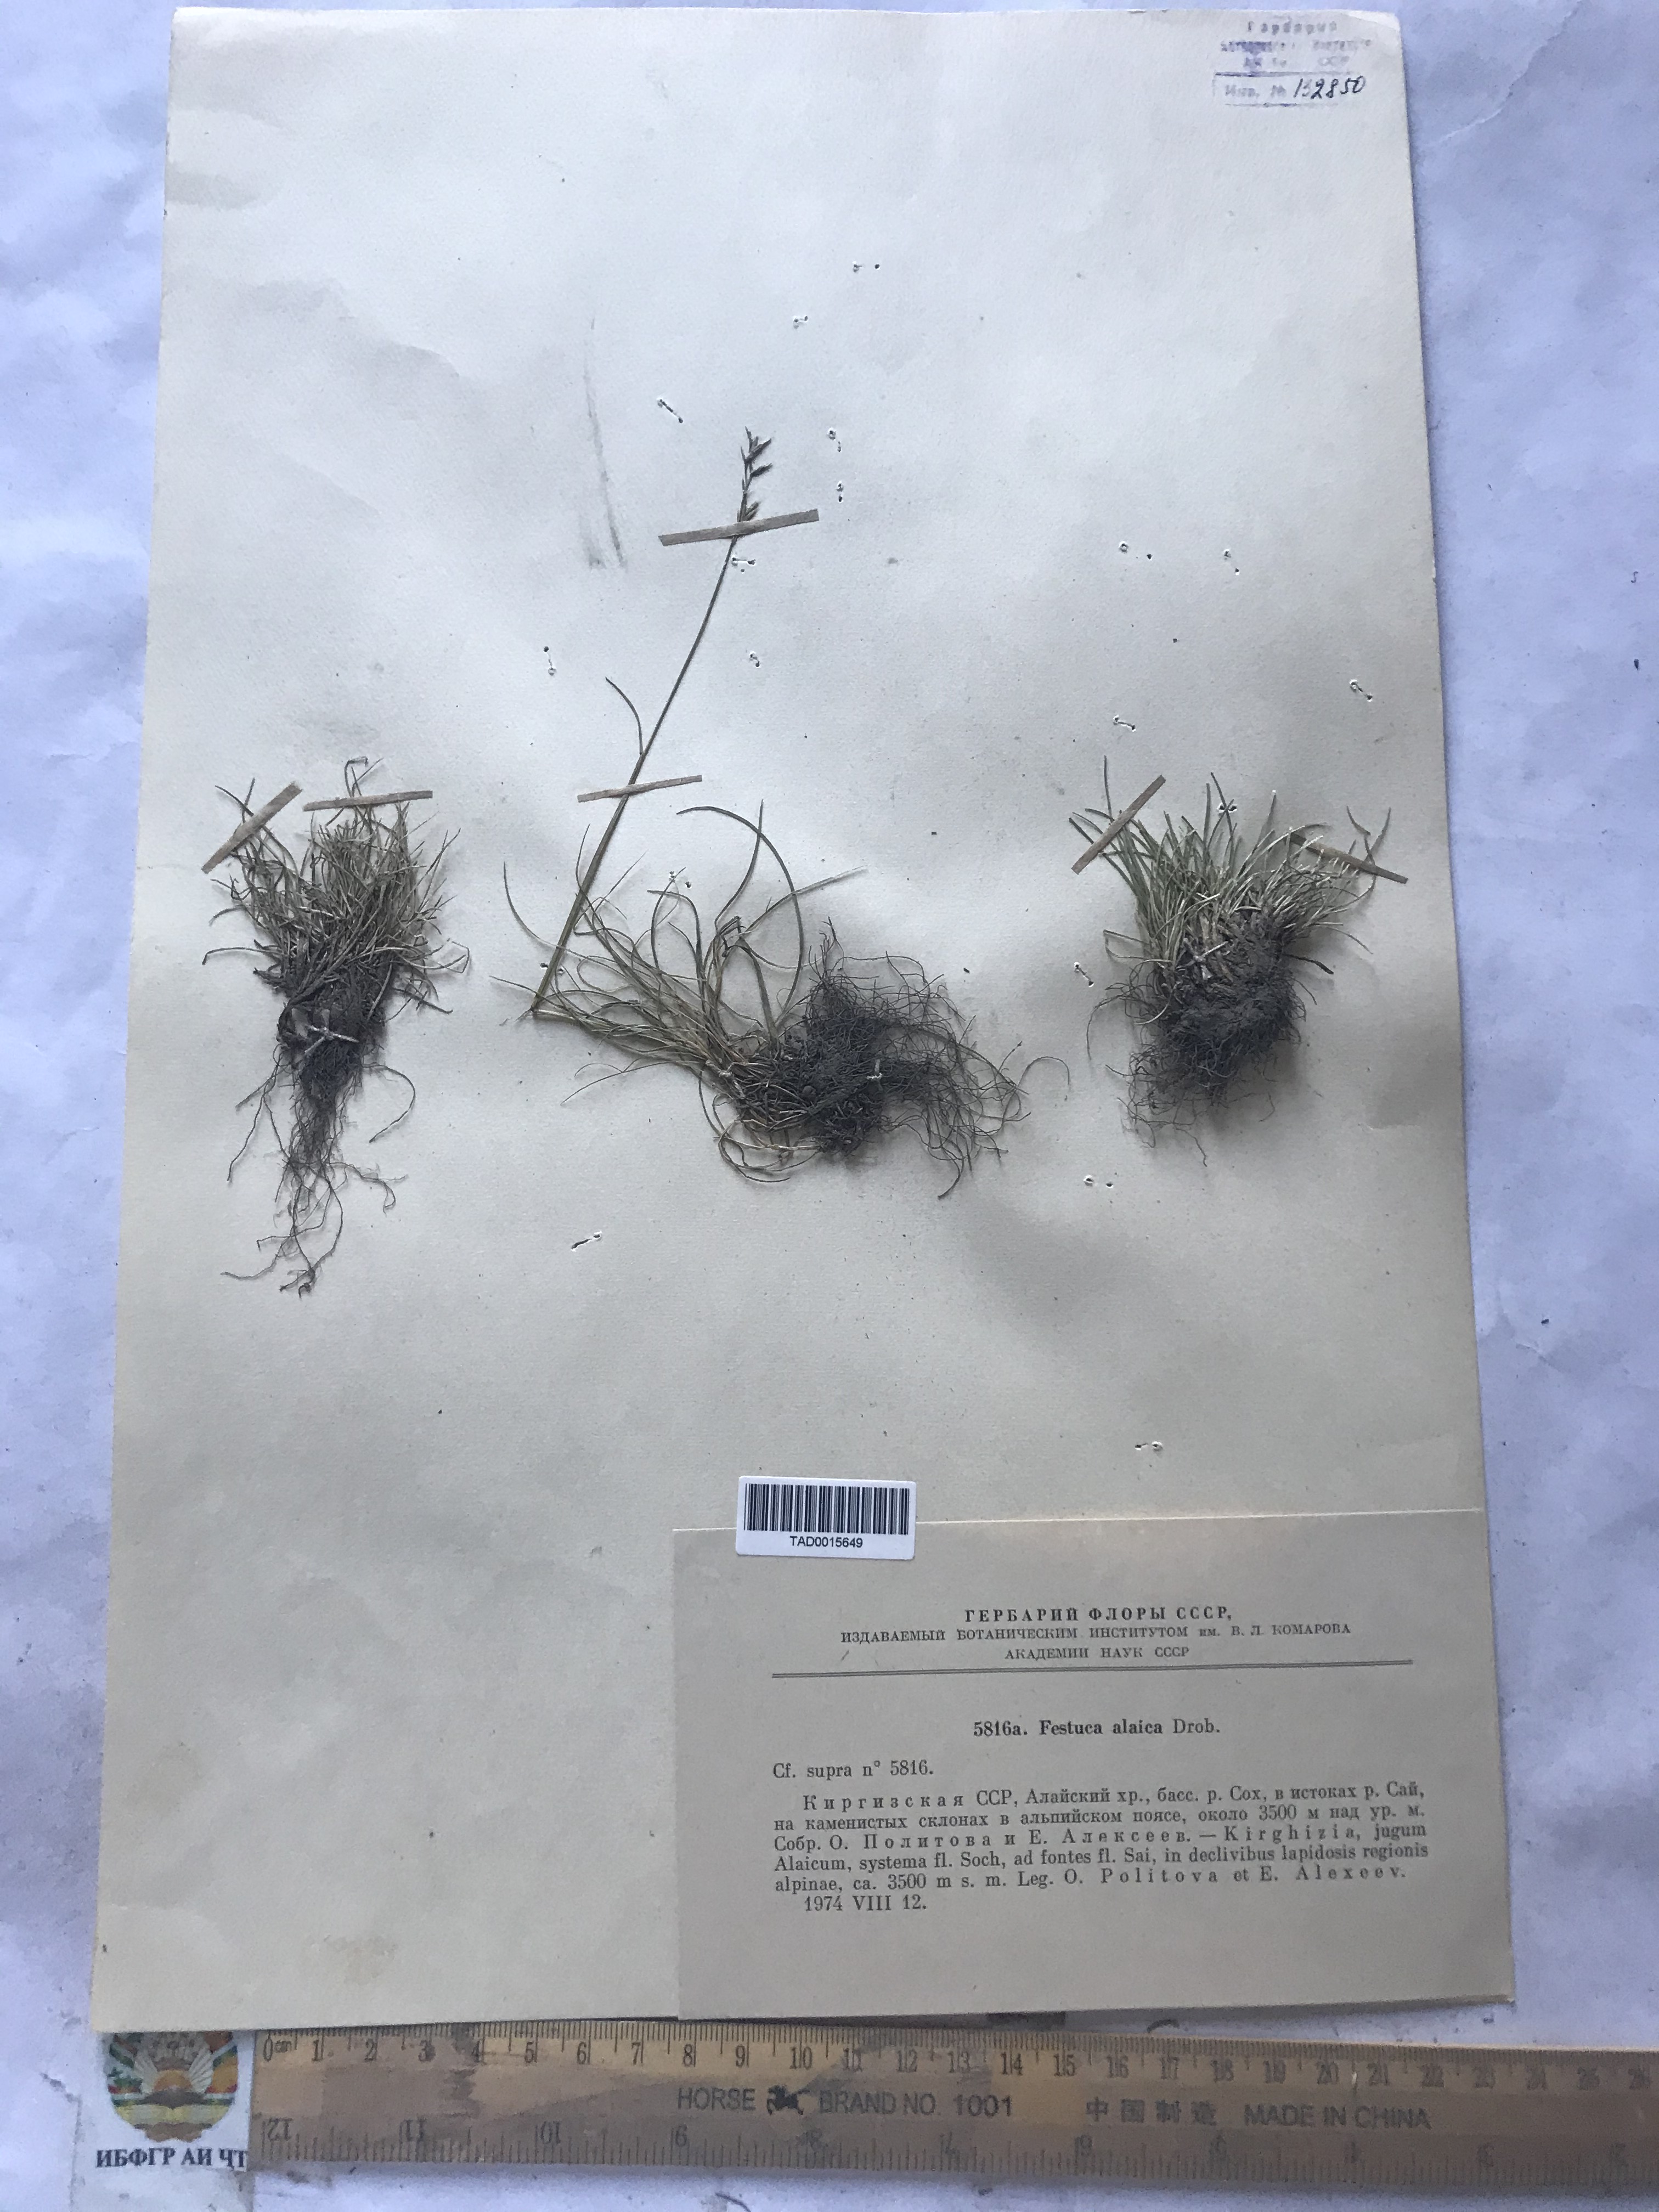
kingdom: Plantae
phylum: Tracheophyta
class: Liliopsida
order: Poales
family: Poaceae
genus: Festuca
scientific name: Festuca alaica
